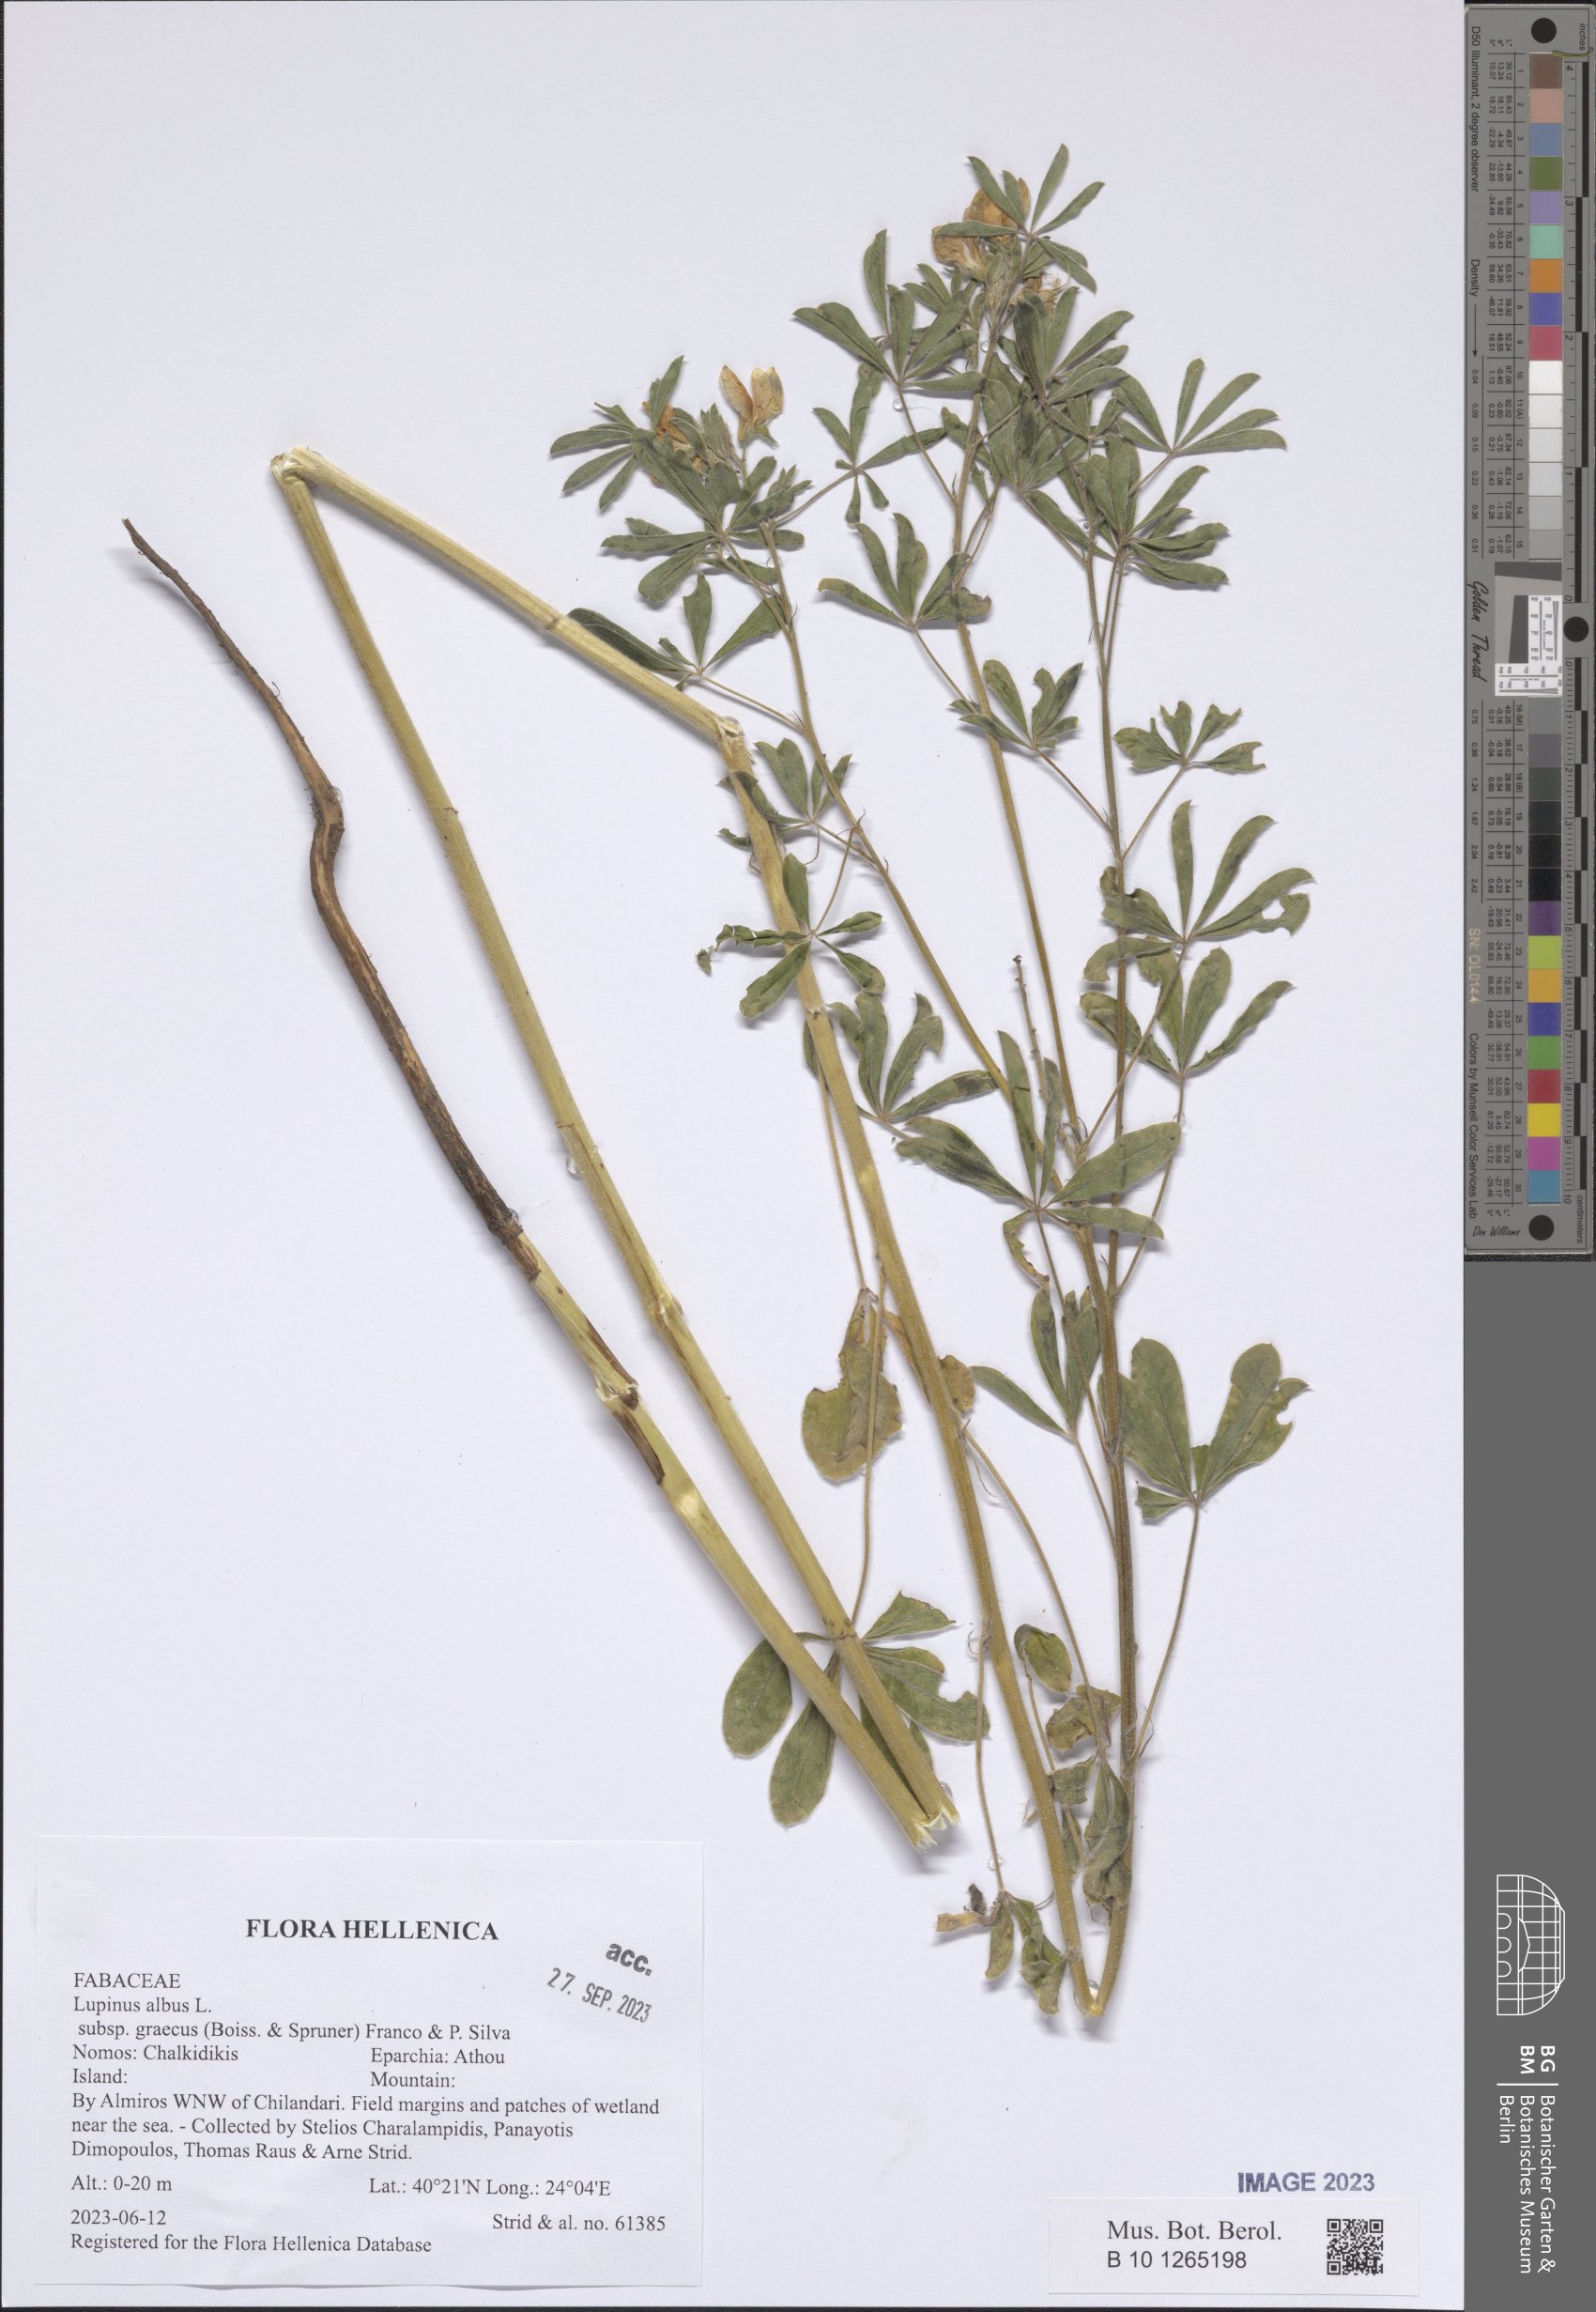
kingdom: Plantae
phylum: Tracheophyta
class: Magnoliopsida
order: Fabales
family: Fabaceae
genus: Lupinus
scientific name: Lupinus albus
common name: White lupin
